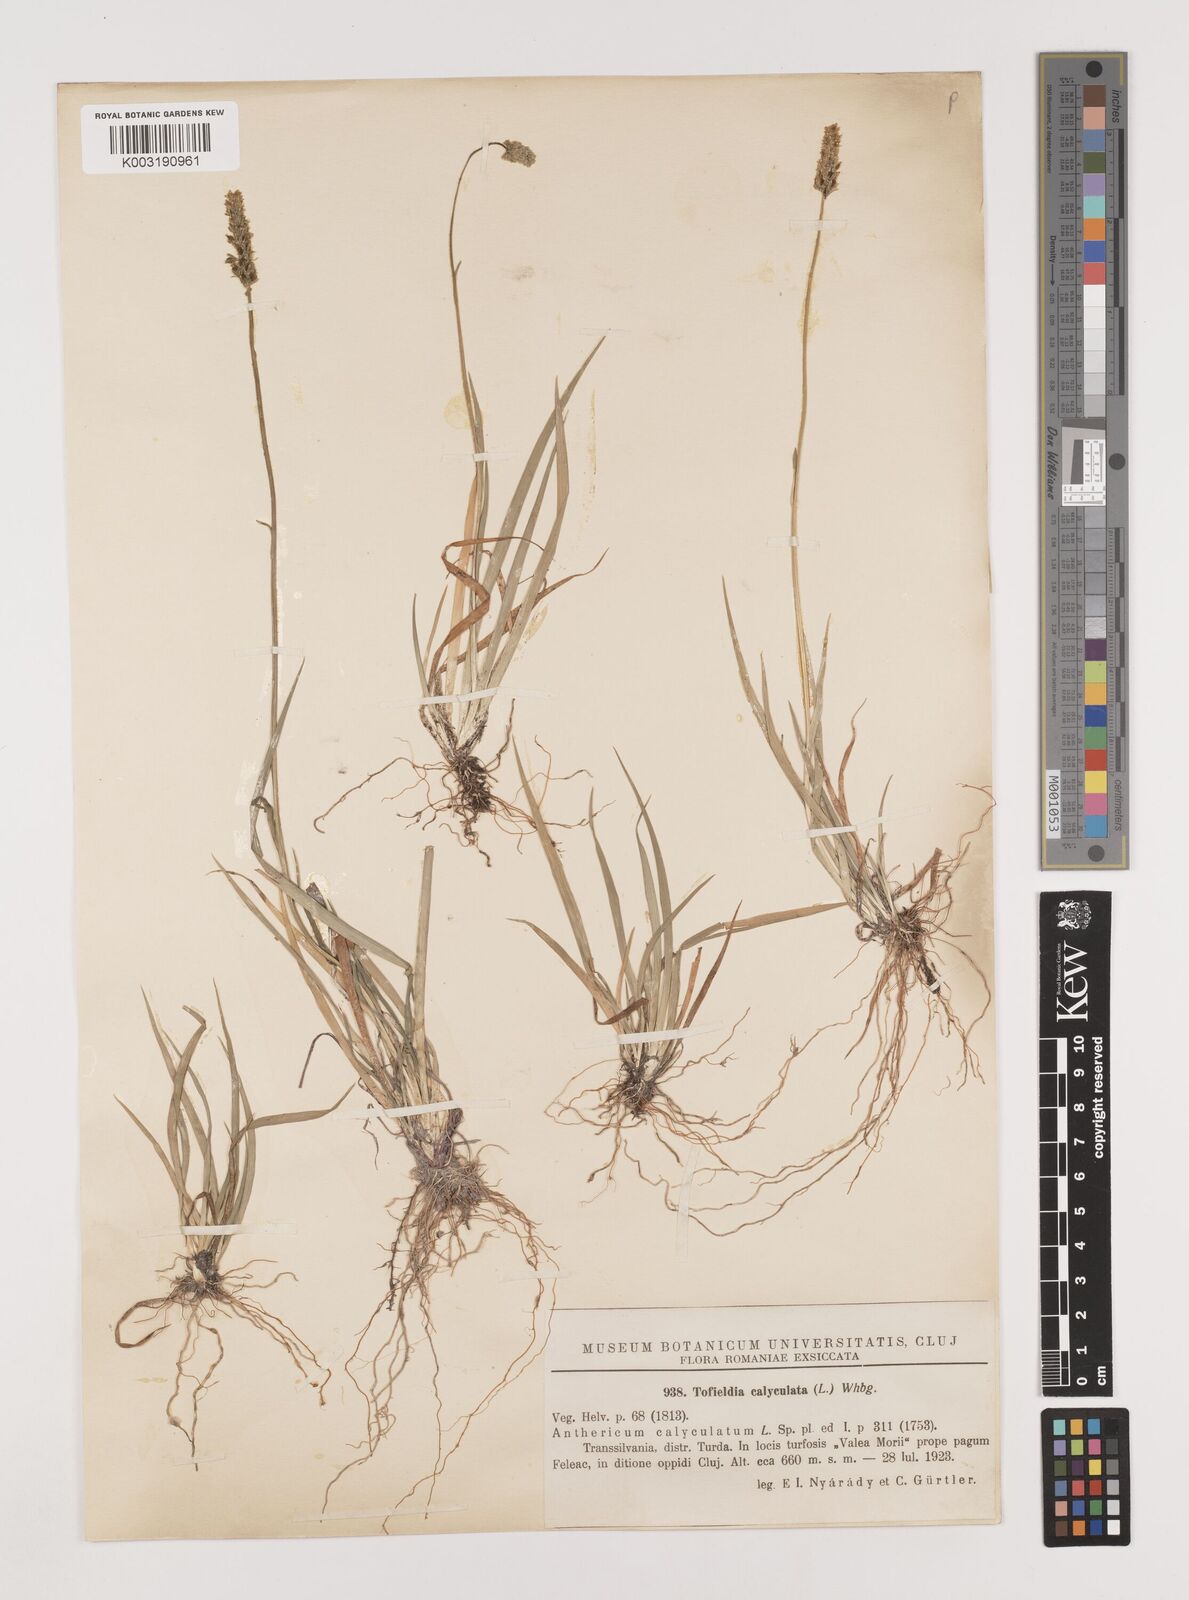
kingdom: Plantae
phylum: Tracheophyta
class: Liliopsida
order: Alismatales
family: Tofieldiaceae
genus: Tofieldia
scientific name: Tofieldia calyculata
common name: German-asphodel
